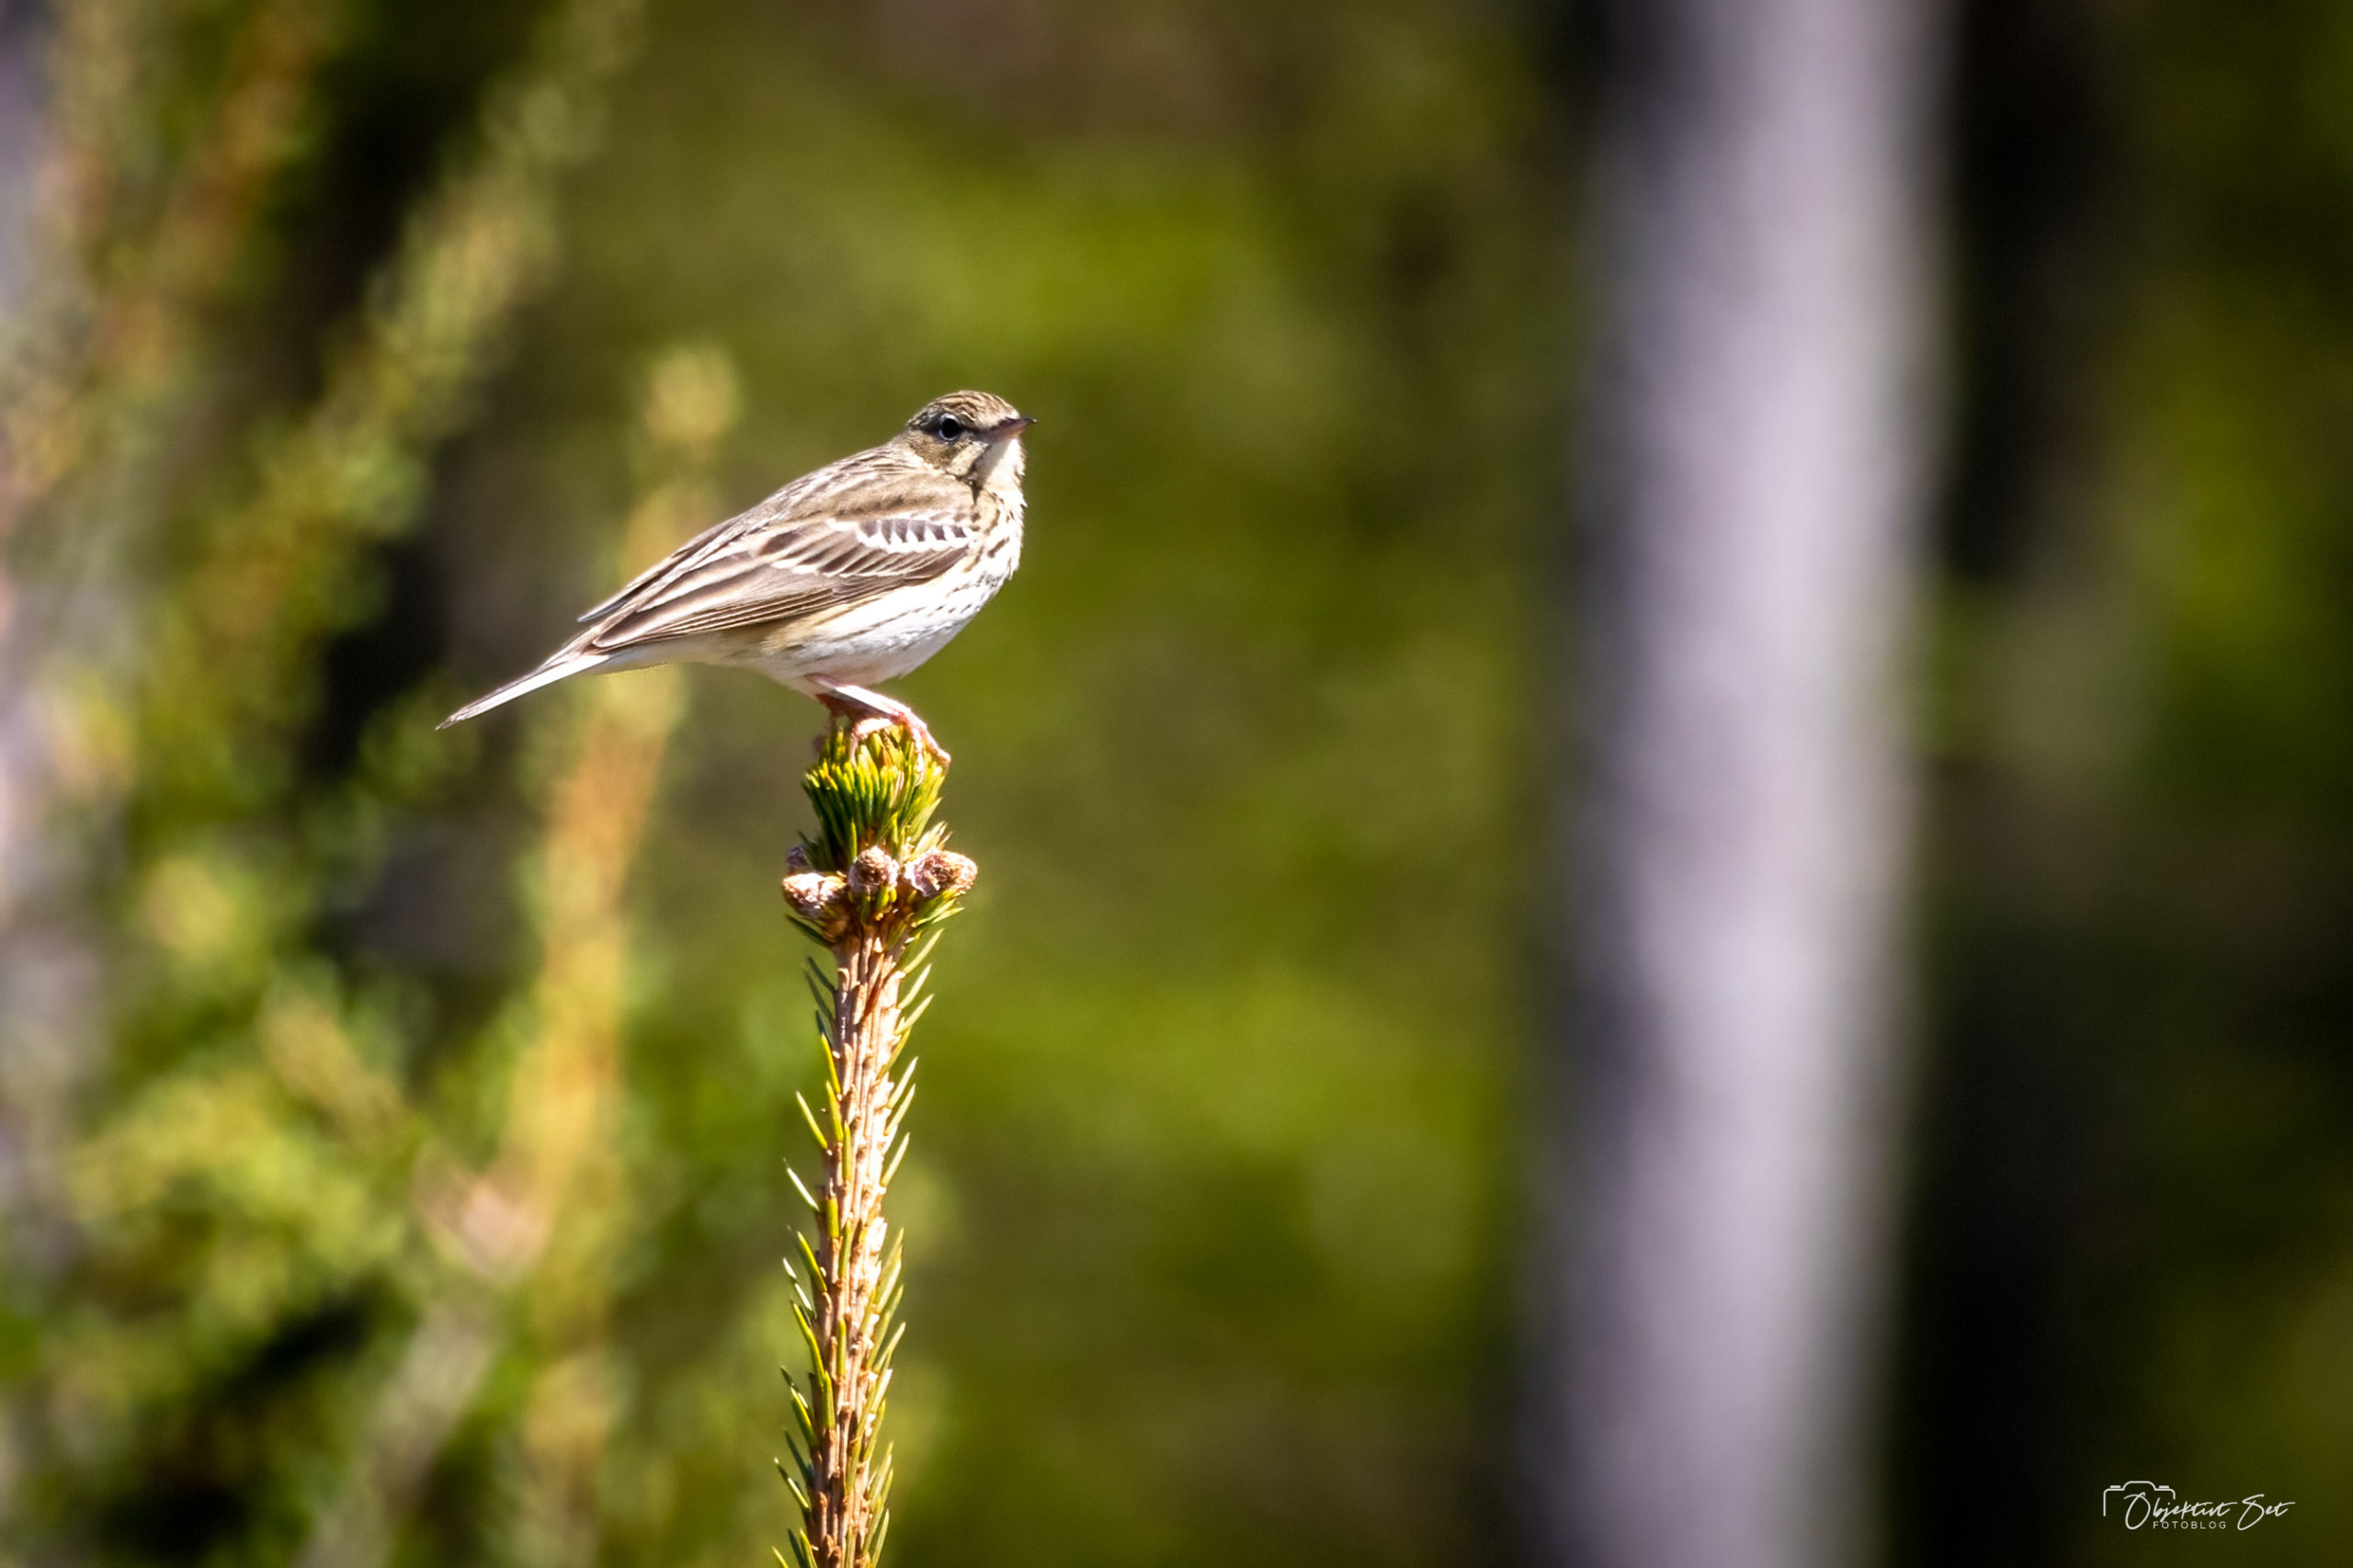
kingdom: Animalia
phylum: Chordata
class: Aves
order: Passeriformes
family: Motacillidae
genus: Anthus
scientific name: Anthus trivialis
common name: Skovpiber
